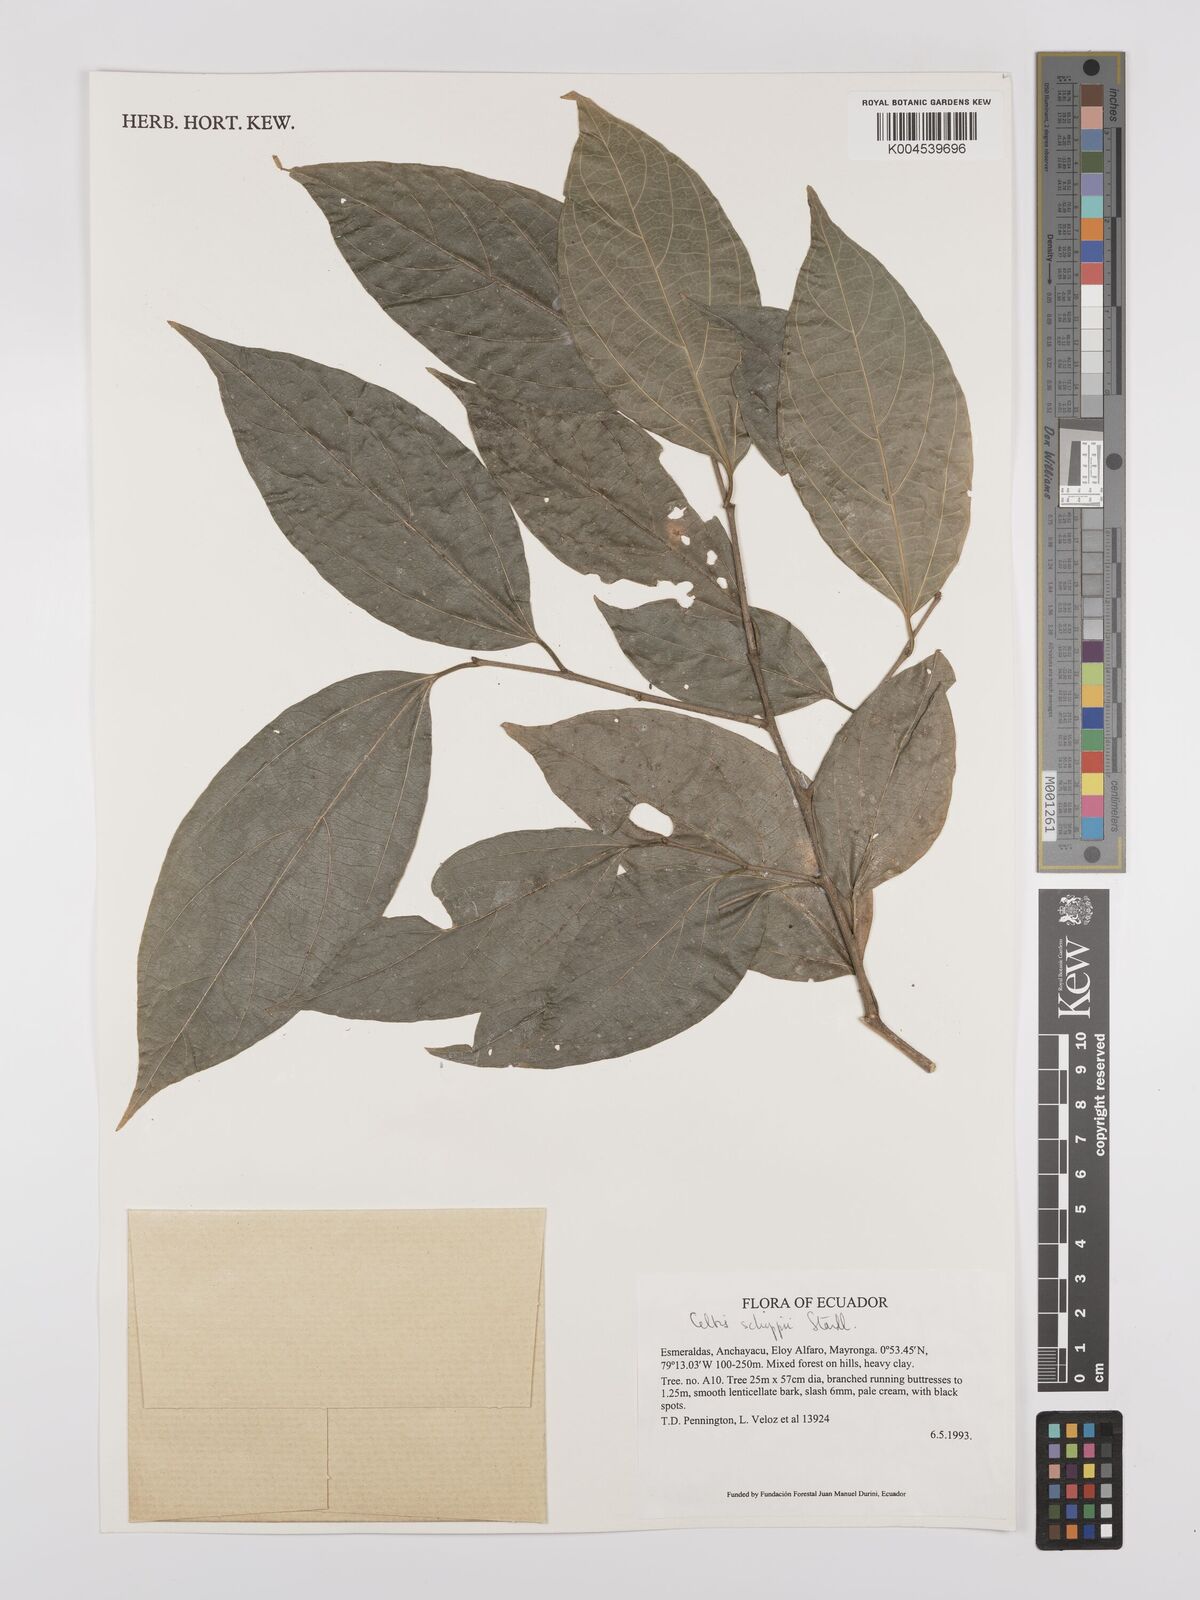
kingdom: Plantae
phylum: Tracheophyta
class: Magnoliopsida
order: Rosales
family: Cannabaceae
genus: Celtis
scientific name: Celtis schippii
